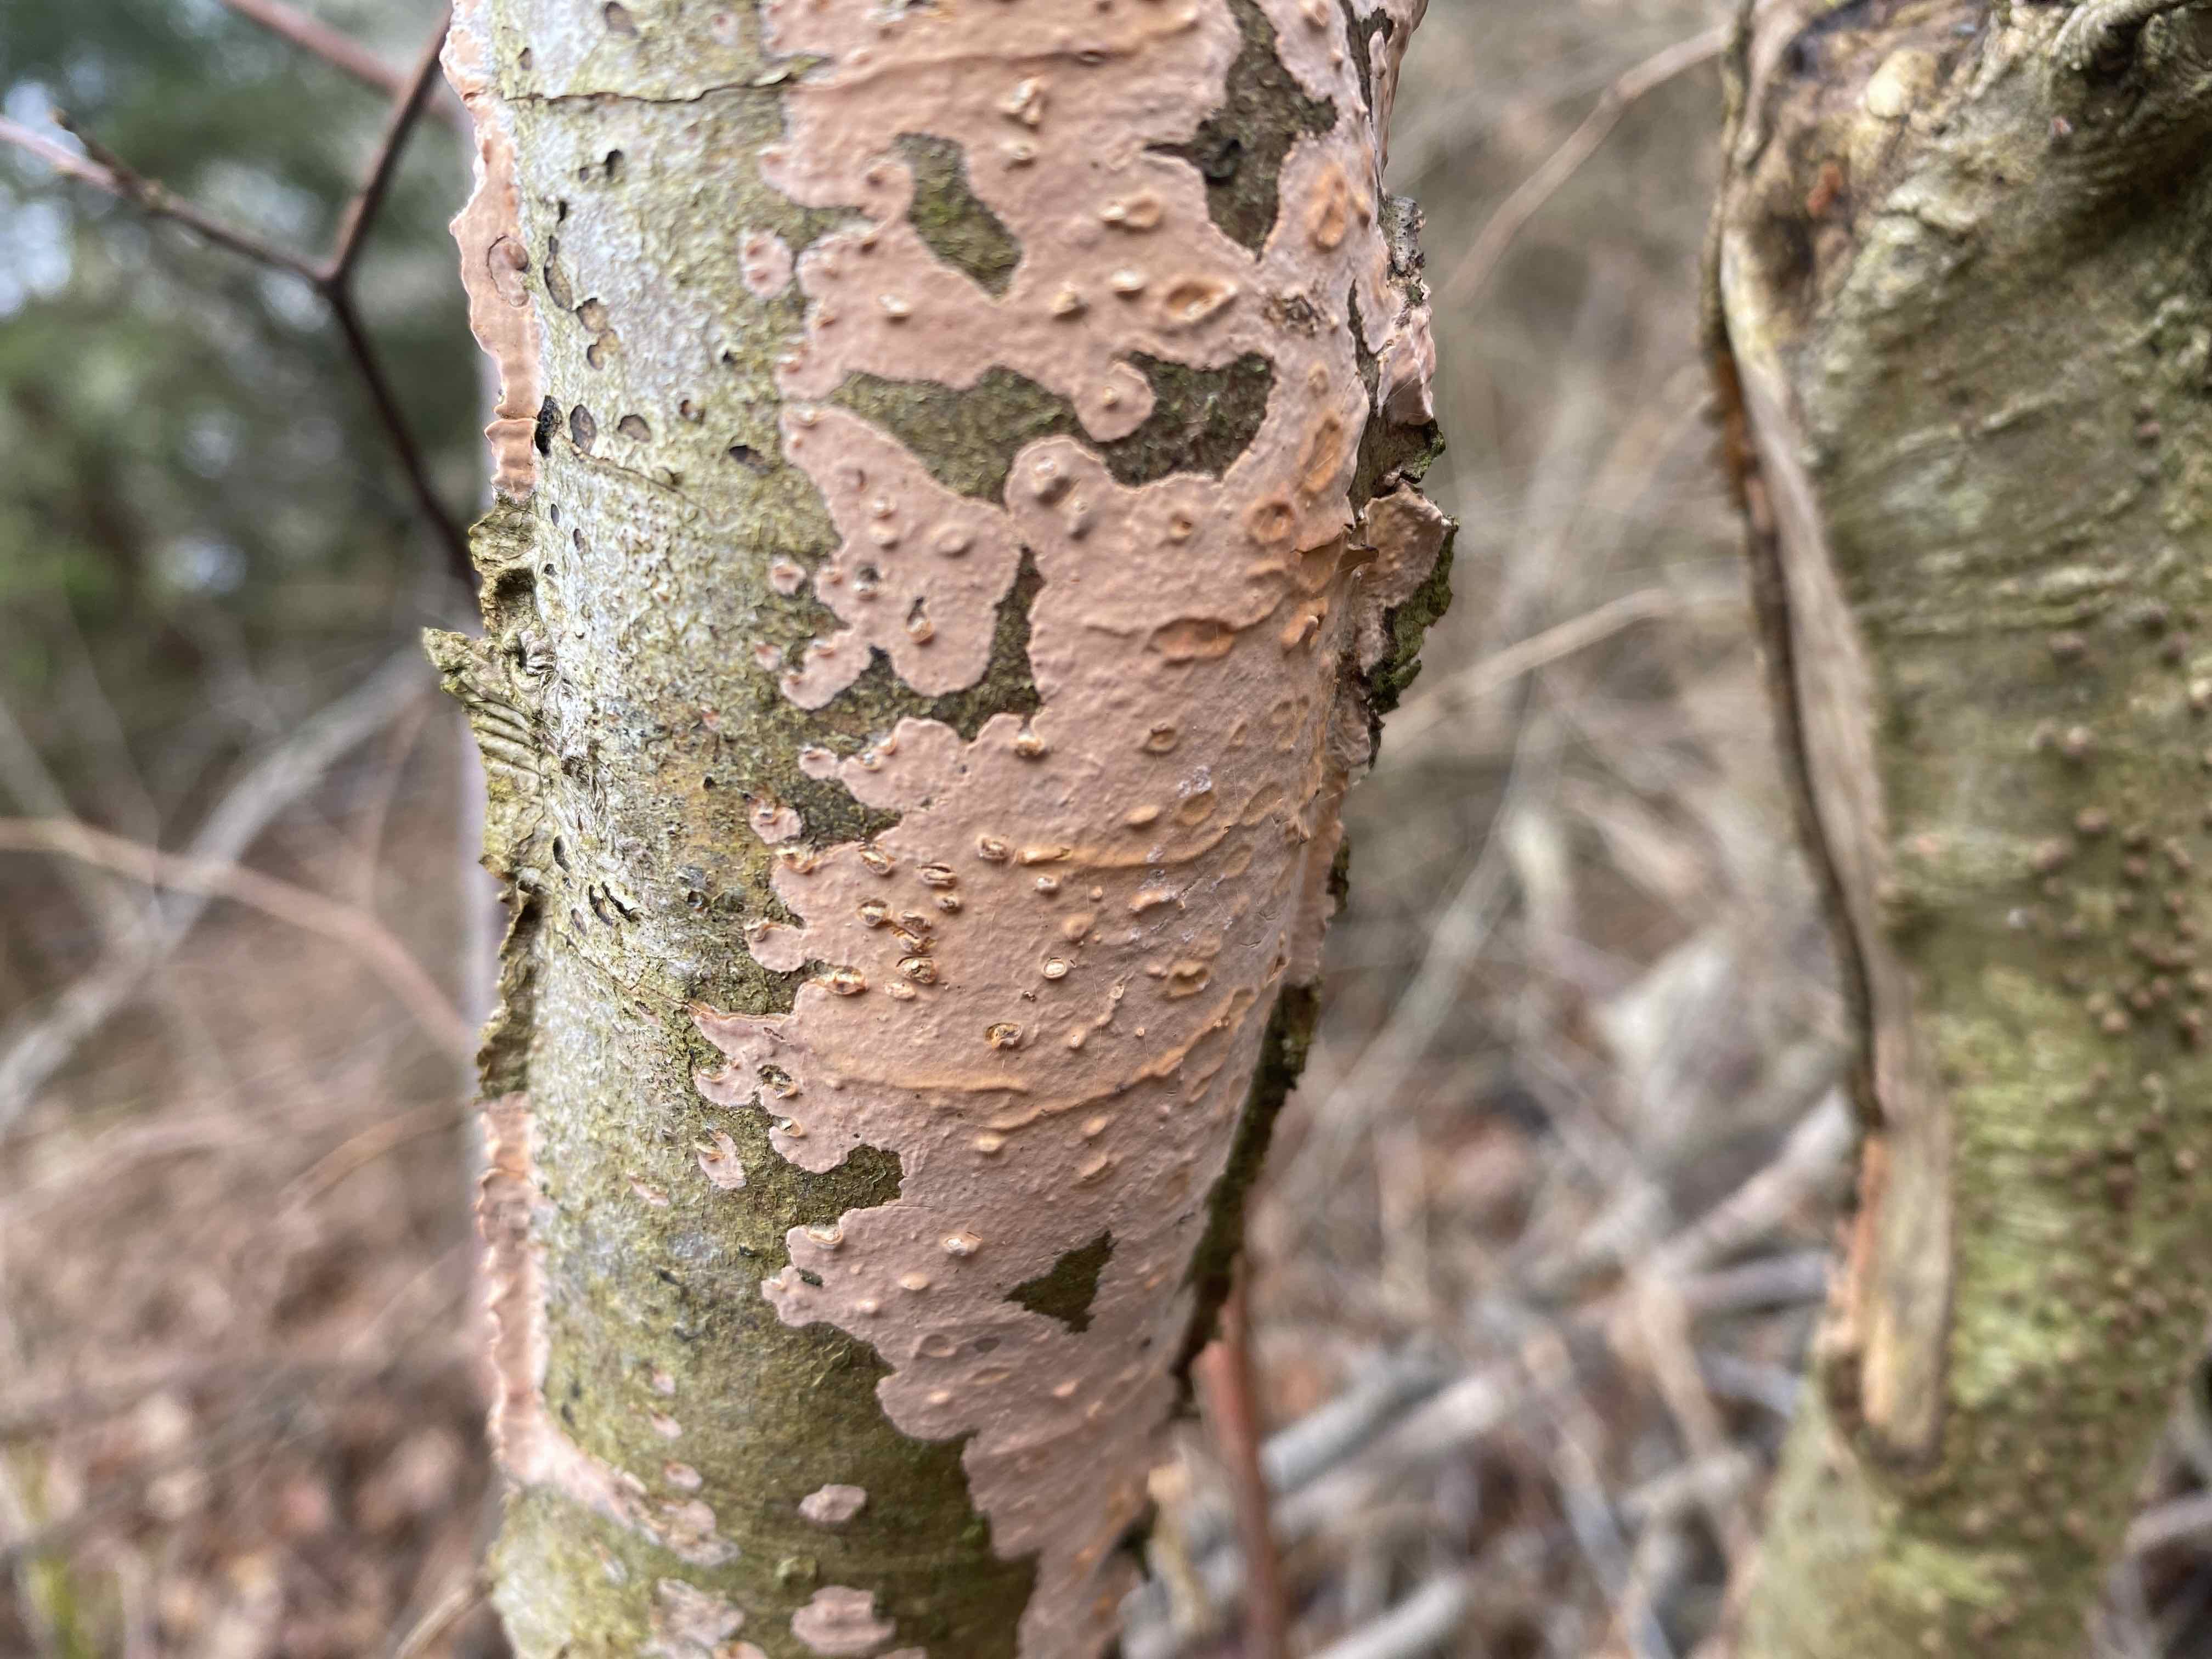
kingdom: Fungi
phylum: Basidiomycota
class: Agaricomycetes
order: Russulales
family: Peniophoraceae
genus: Peniophora
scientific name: Peniophora incarnata
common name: laksefarvet voksskind
